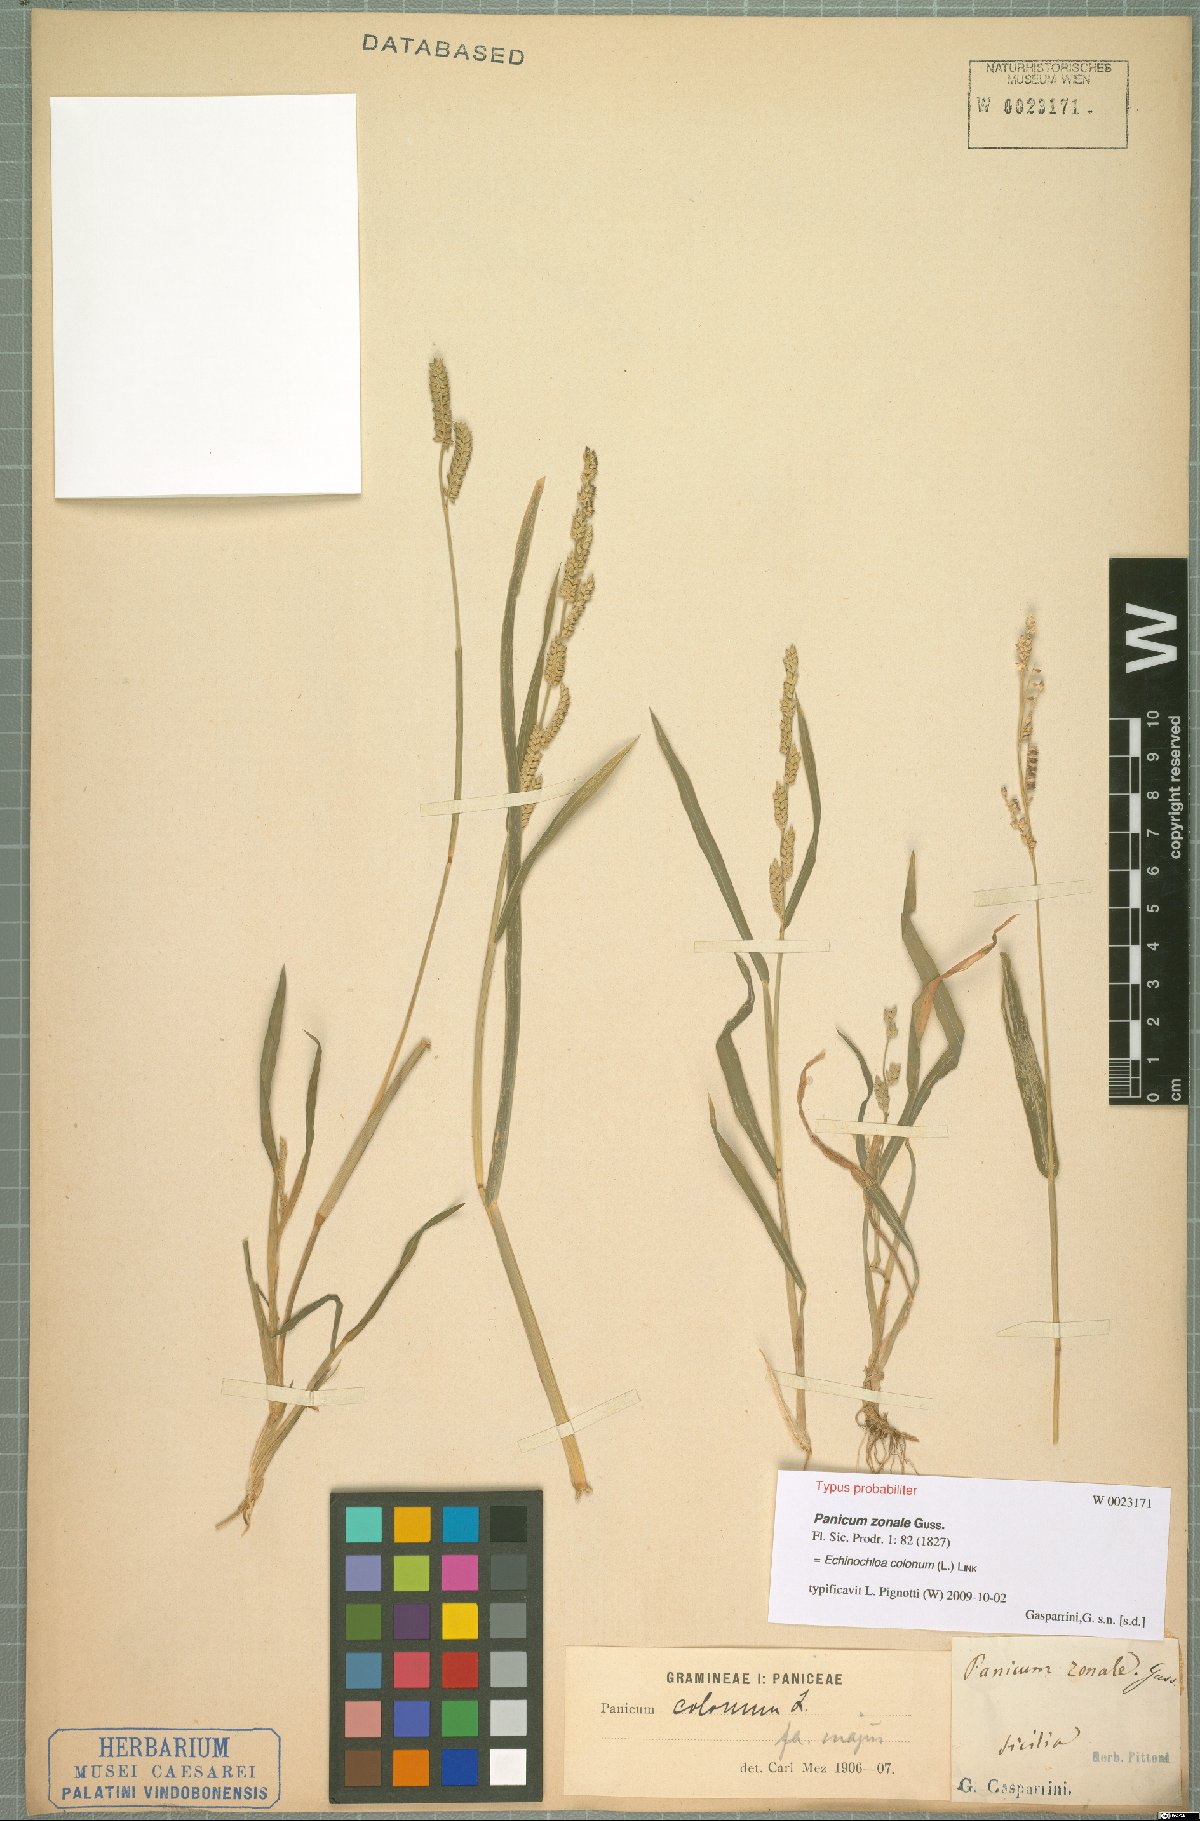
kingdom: Plantae
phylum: Tracheophyta
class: Liliopsida
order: Poales
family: Poaceae
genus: Echinochloa
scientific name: Echinochloa colonum
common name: Jungle rice
